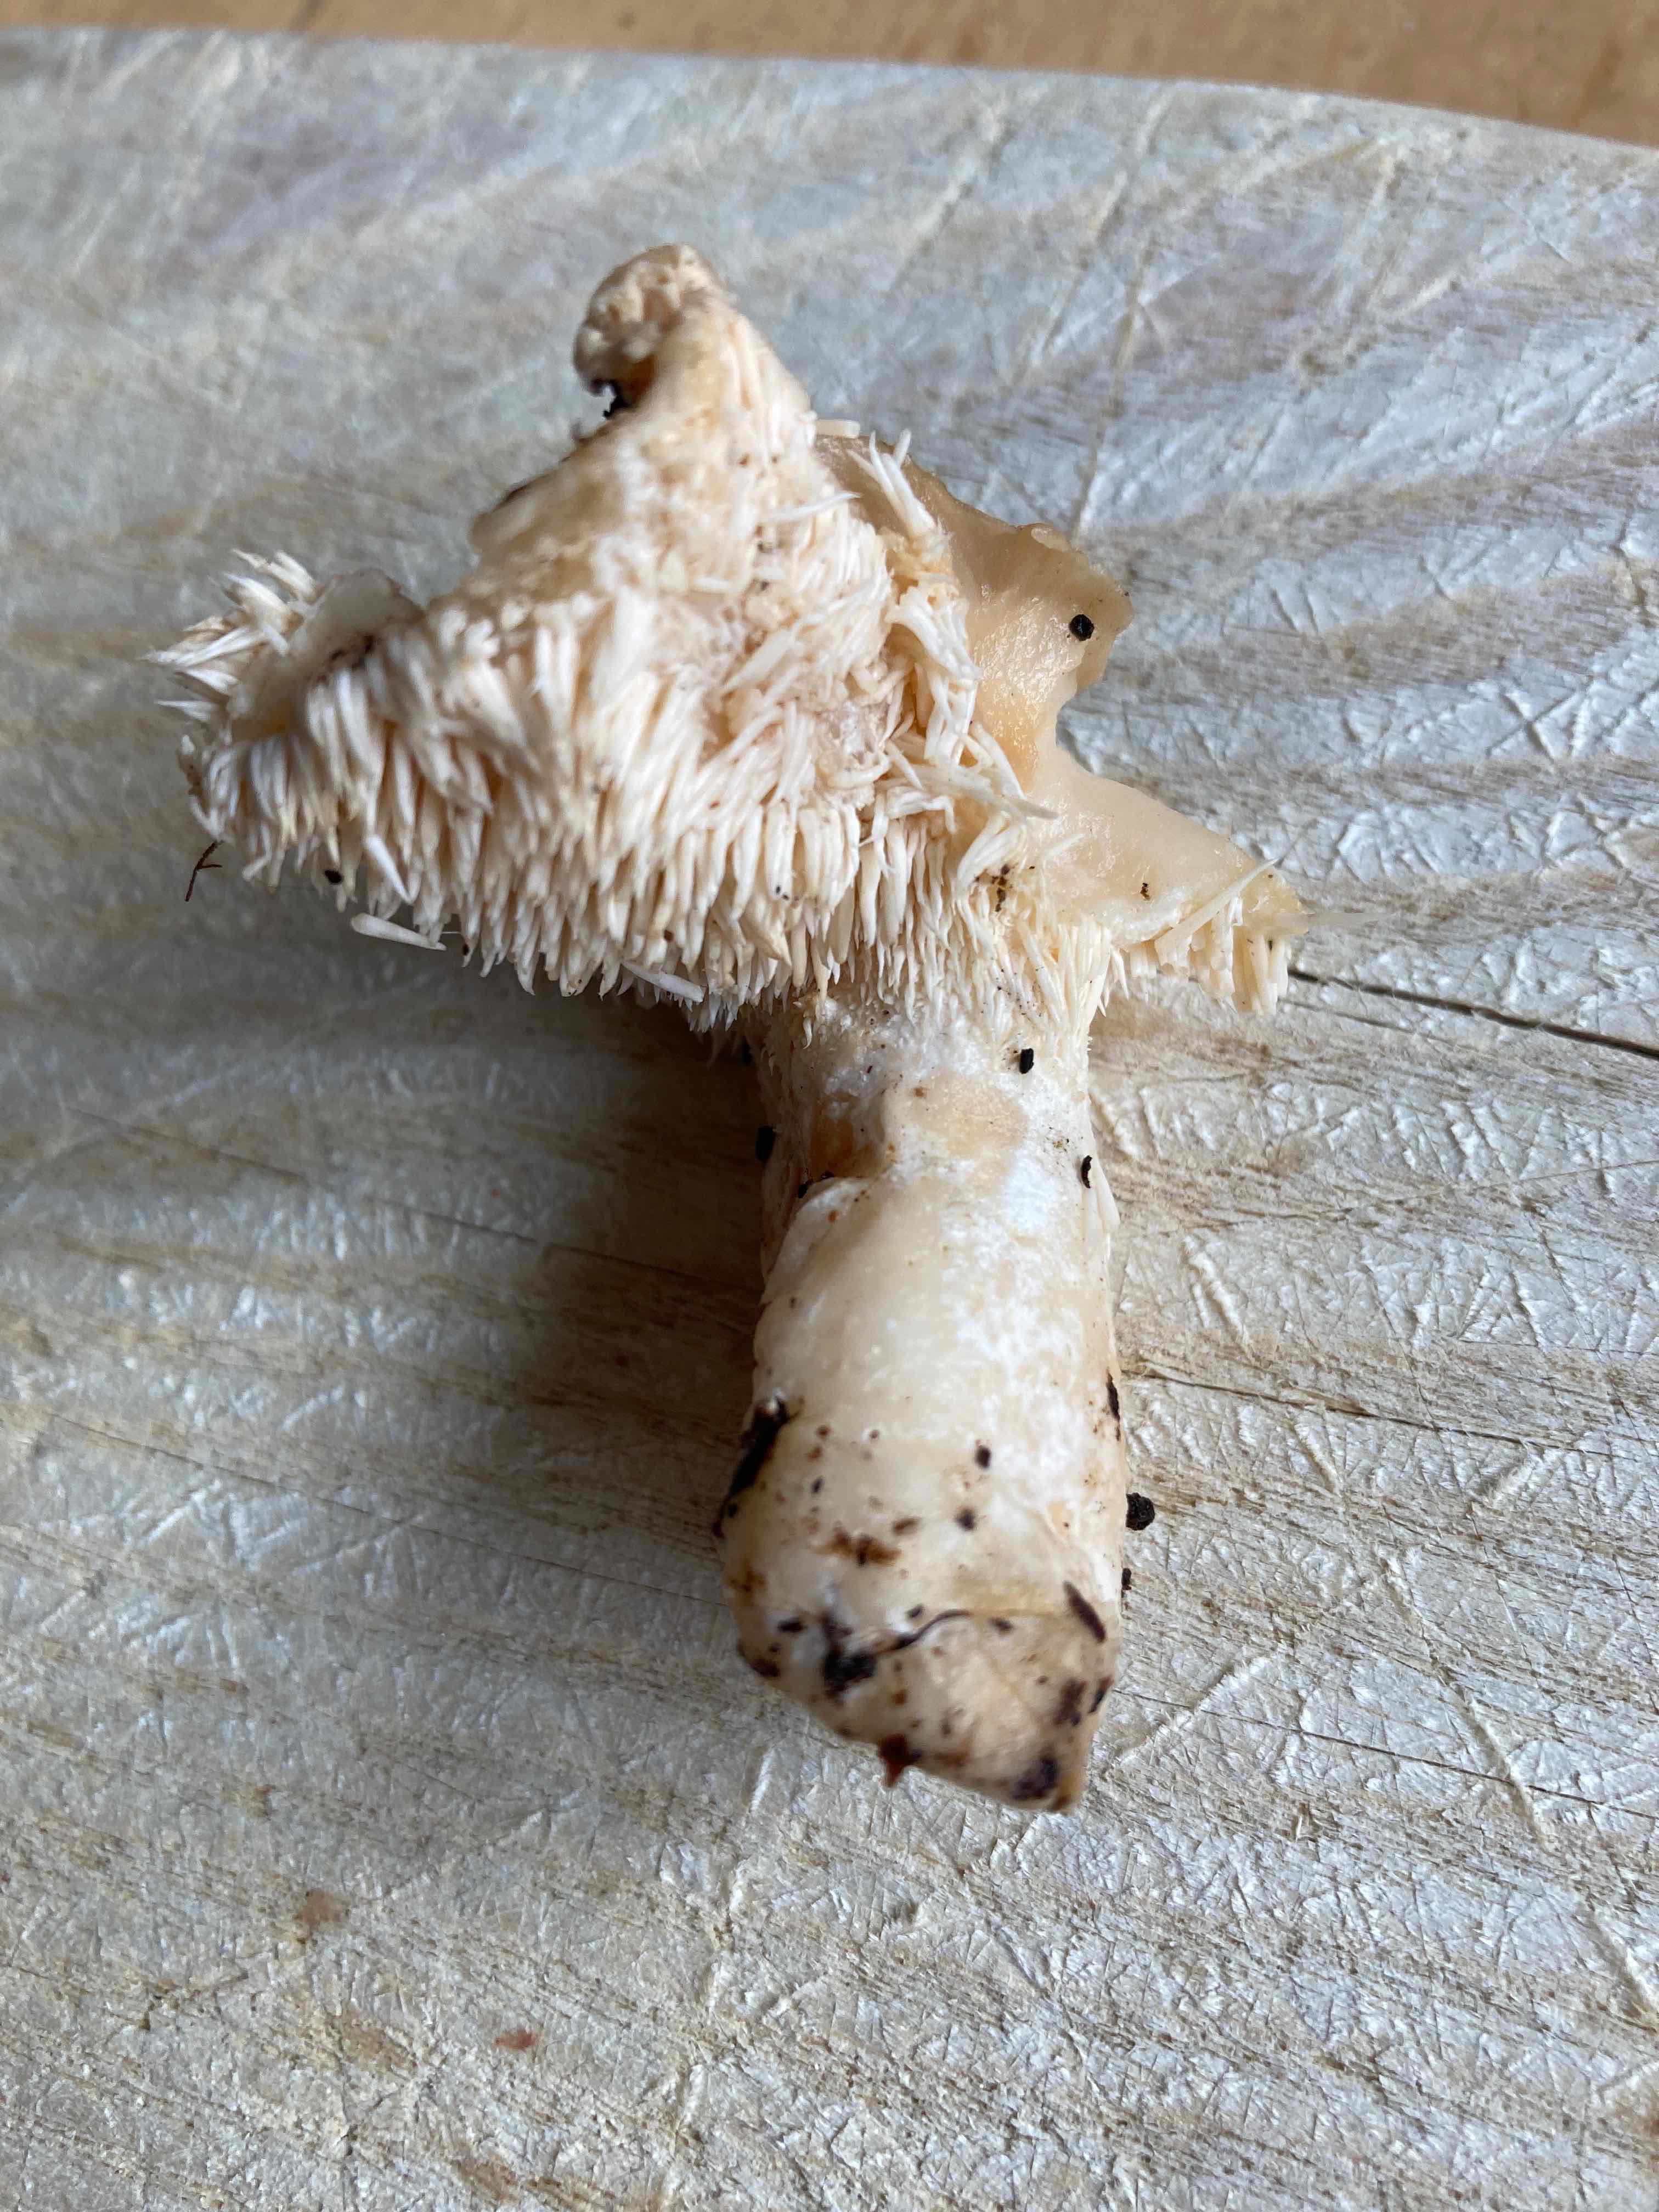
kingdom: Fungi
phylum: Basidiomycota
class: Agaricomycetes
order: Cantharellales
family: Hydnaceae
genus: Hydnum
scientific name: Hydnum
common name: pigsvamp
